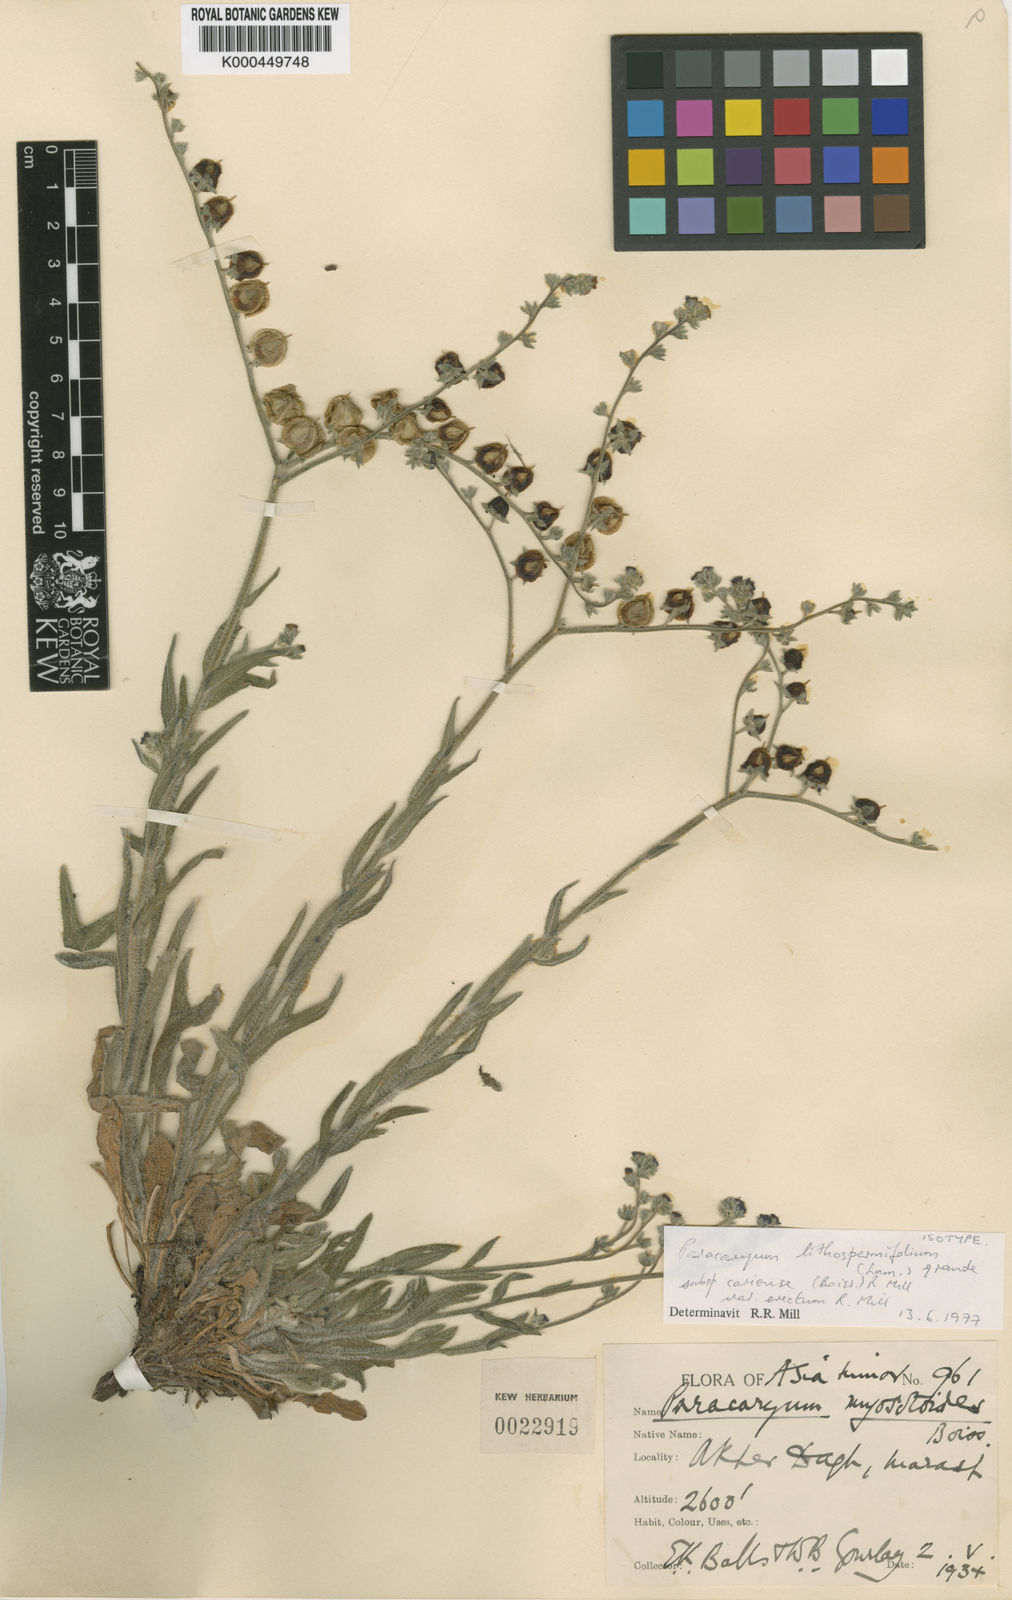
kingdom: Plantae
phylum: Tracheophyta
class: Magnoliopsida
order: Boraginales
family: Boraginaceae
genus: Paracaryum
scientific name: Paracaryum lithospermifolium
